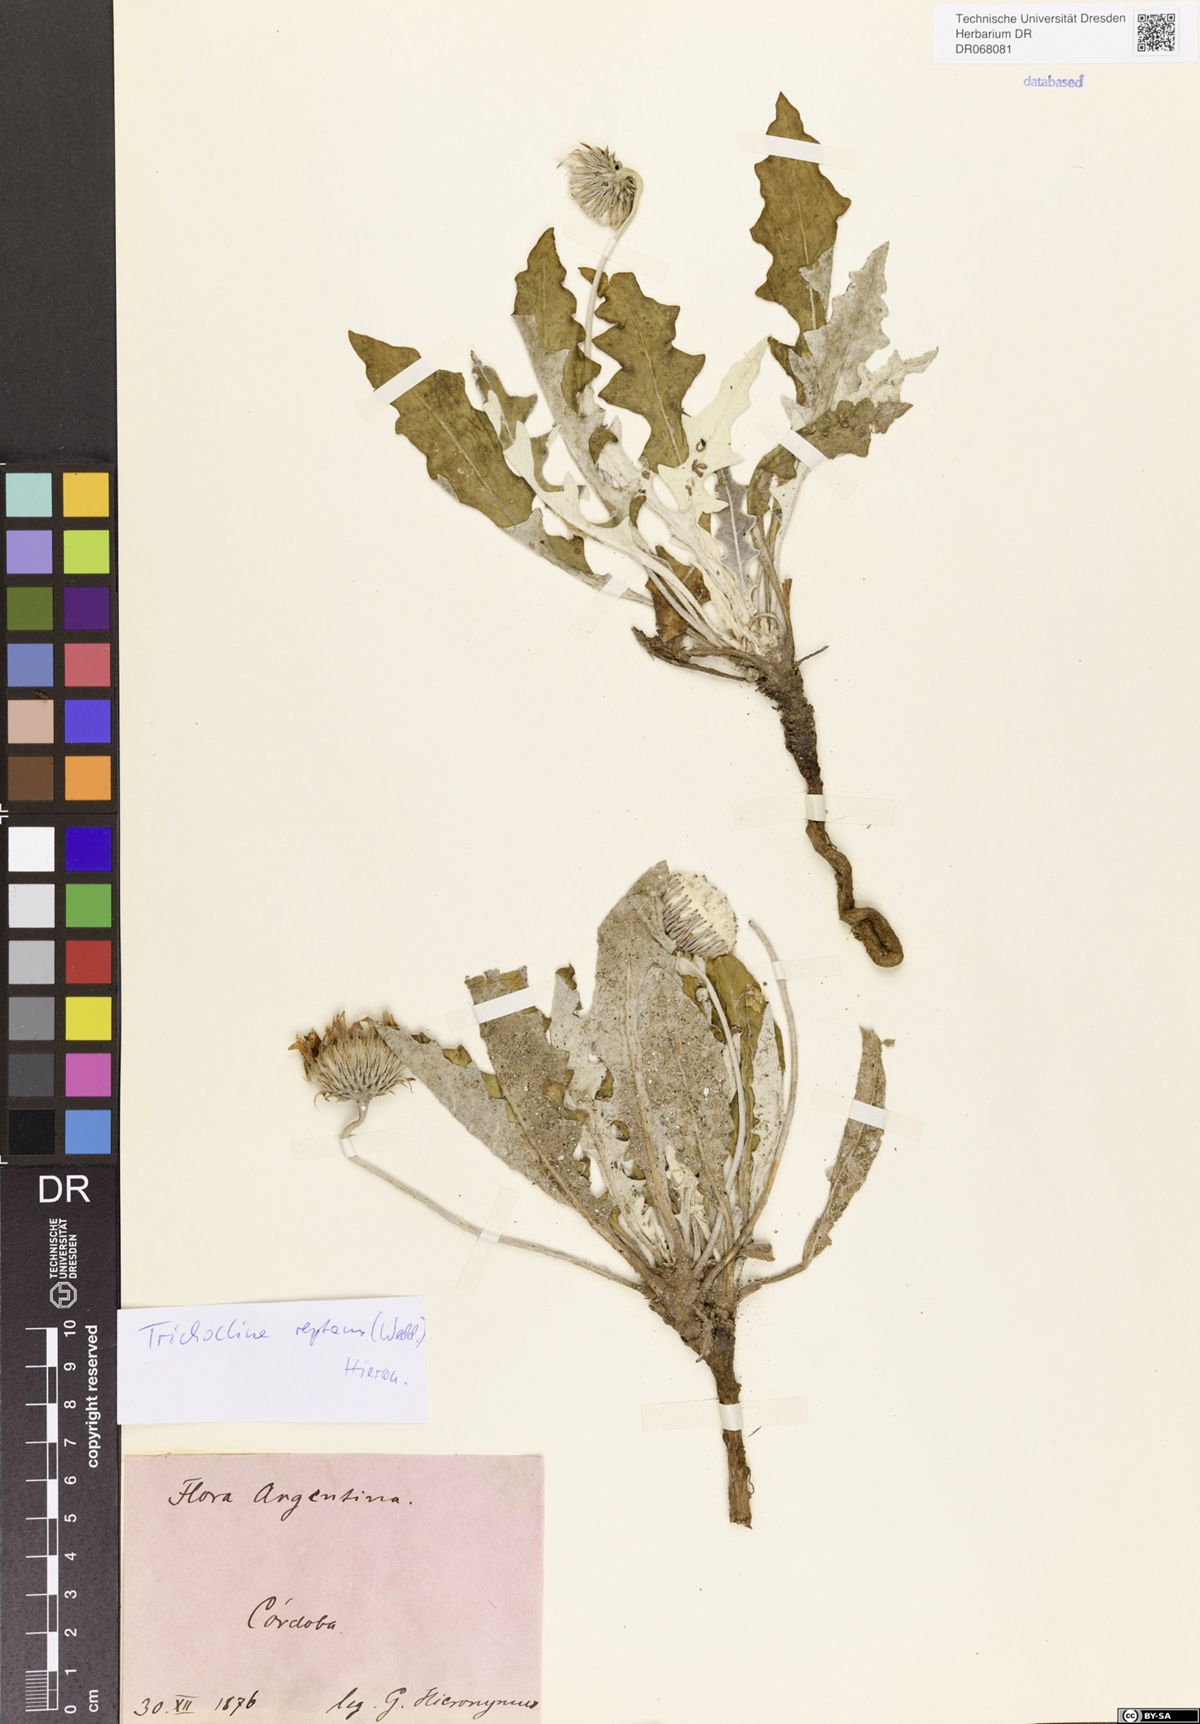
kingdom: Plantae
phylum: Tracheophyta
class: Magnoliopsida
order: Asterales
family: Asteraceae
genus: Trichocline
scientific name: Trichocline reptans
